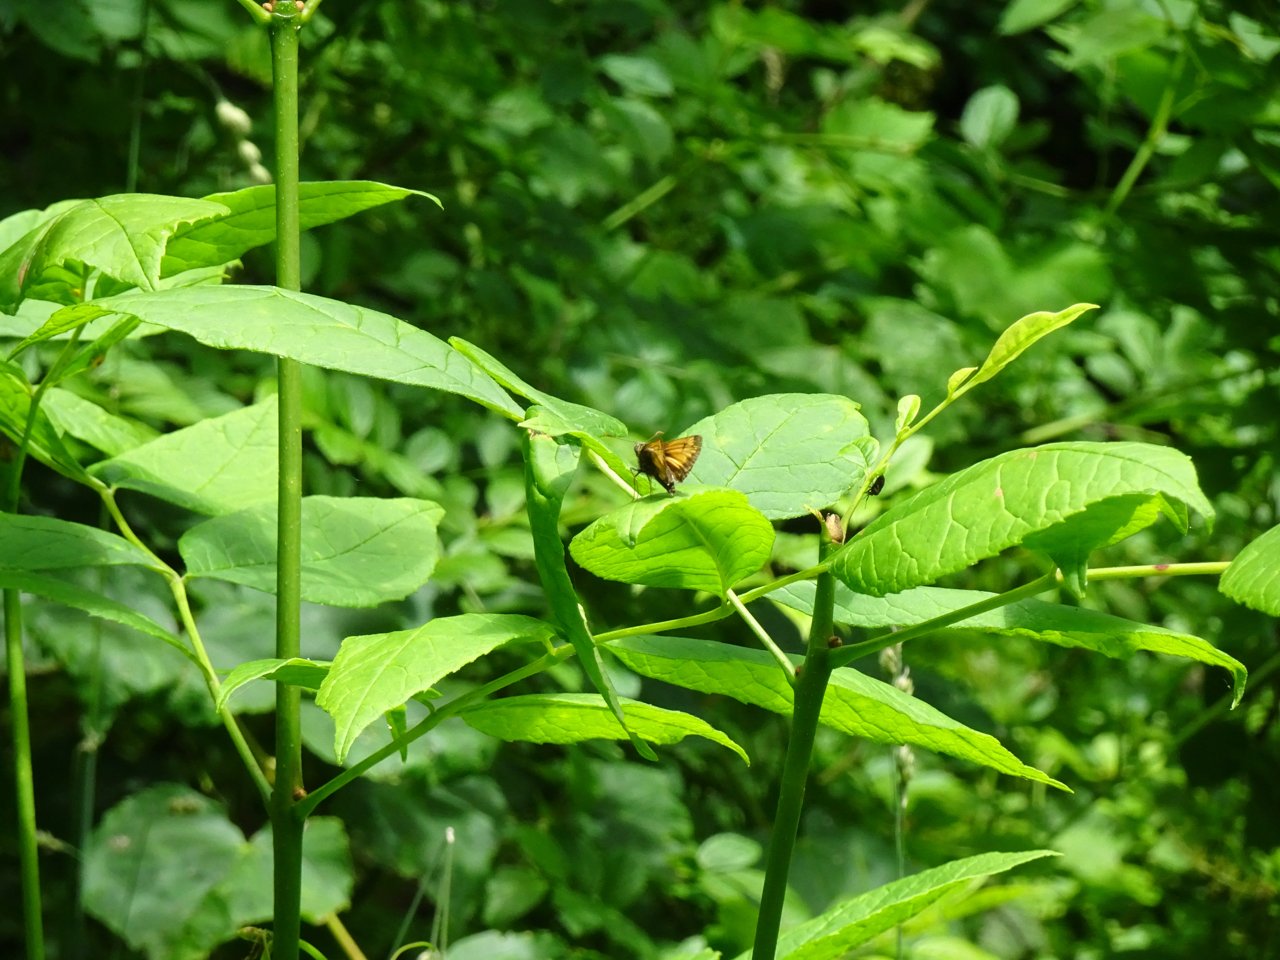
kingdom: Animalia
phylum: Arthropoda
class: Insecta
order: Lepidoptera
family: Hesperiidae
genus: Lon
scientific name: Lon hobomok
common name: Hobomok Skipper
